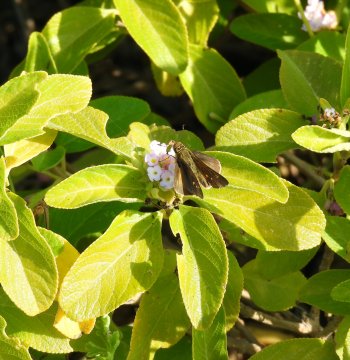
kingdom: Animalia
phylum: Arthropoda
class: Insecta
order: Lepidoptera
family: Hesperiidae
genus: Lerema
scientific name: Lerema ancillaris
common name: Liris Skipper
